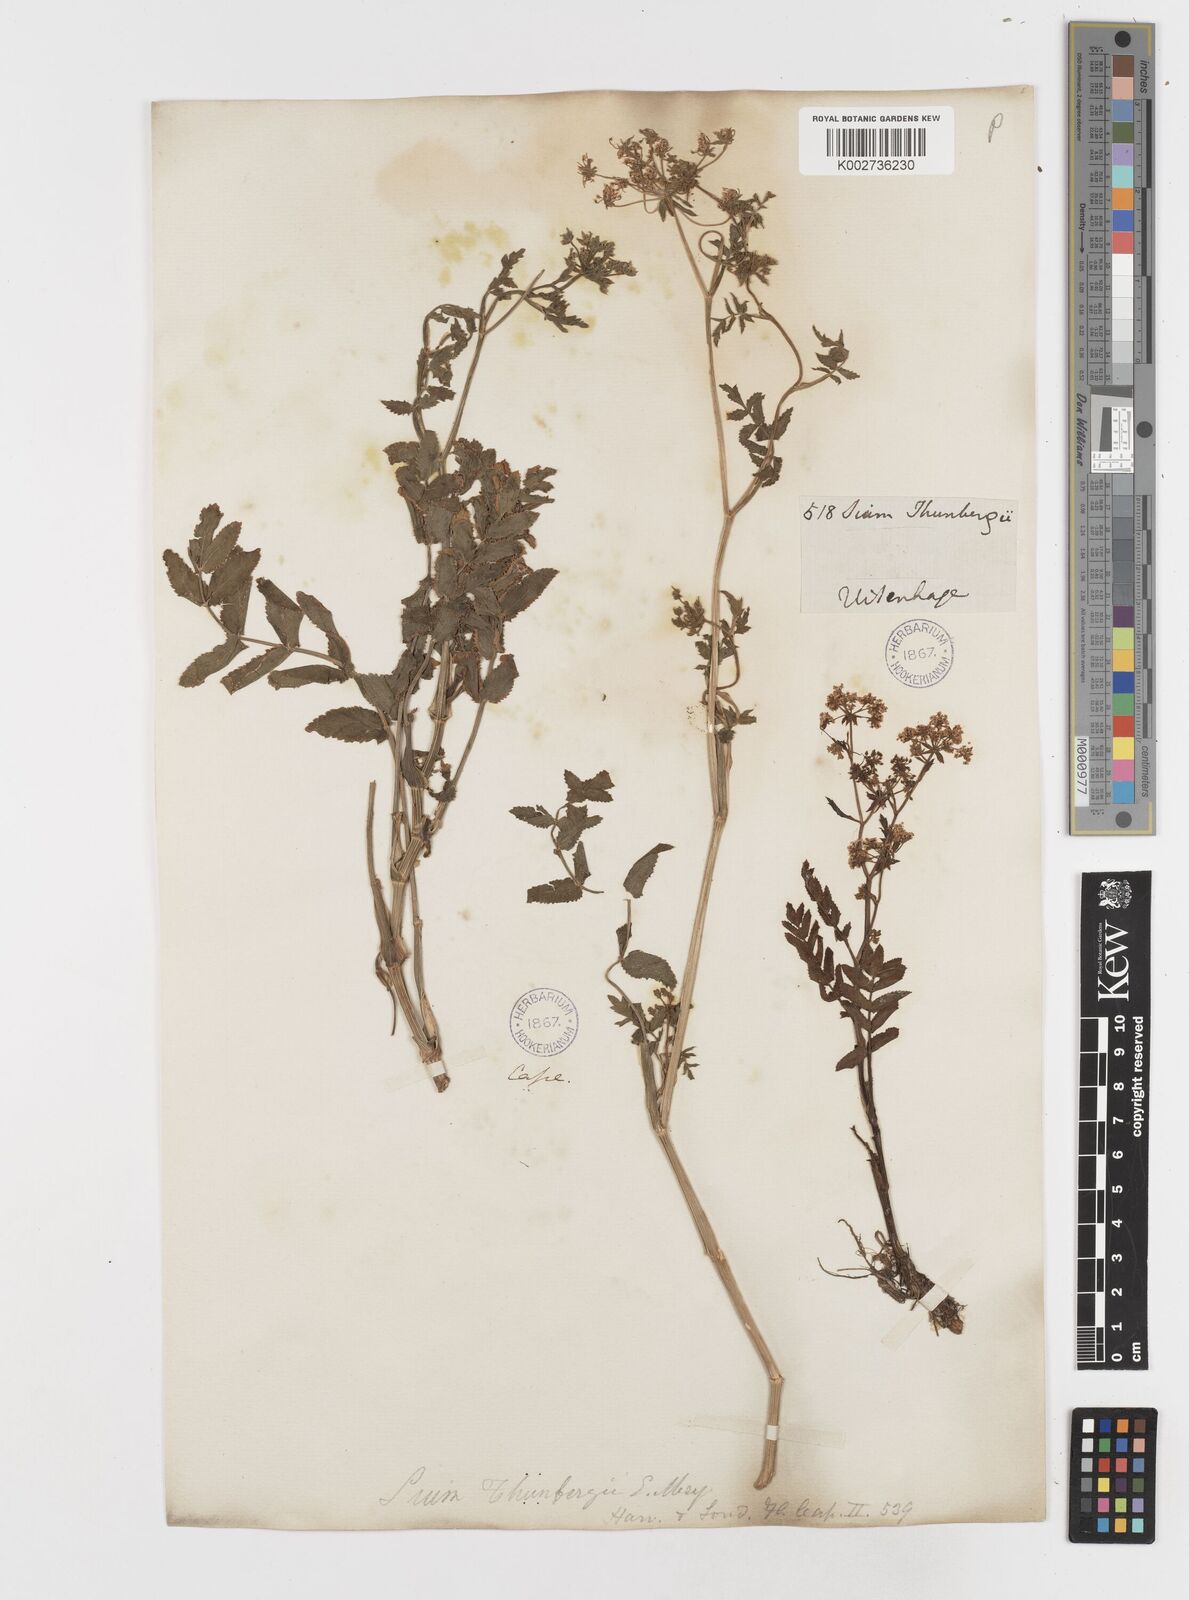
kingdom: Plantae
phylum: Tracheophyta
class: Magnoliopsida
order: Apiales
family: Apiaceae
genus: Berula
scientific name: Berula erecta
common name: Lesser water-parsnip
